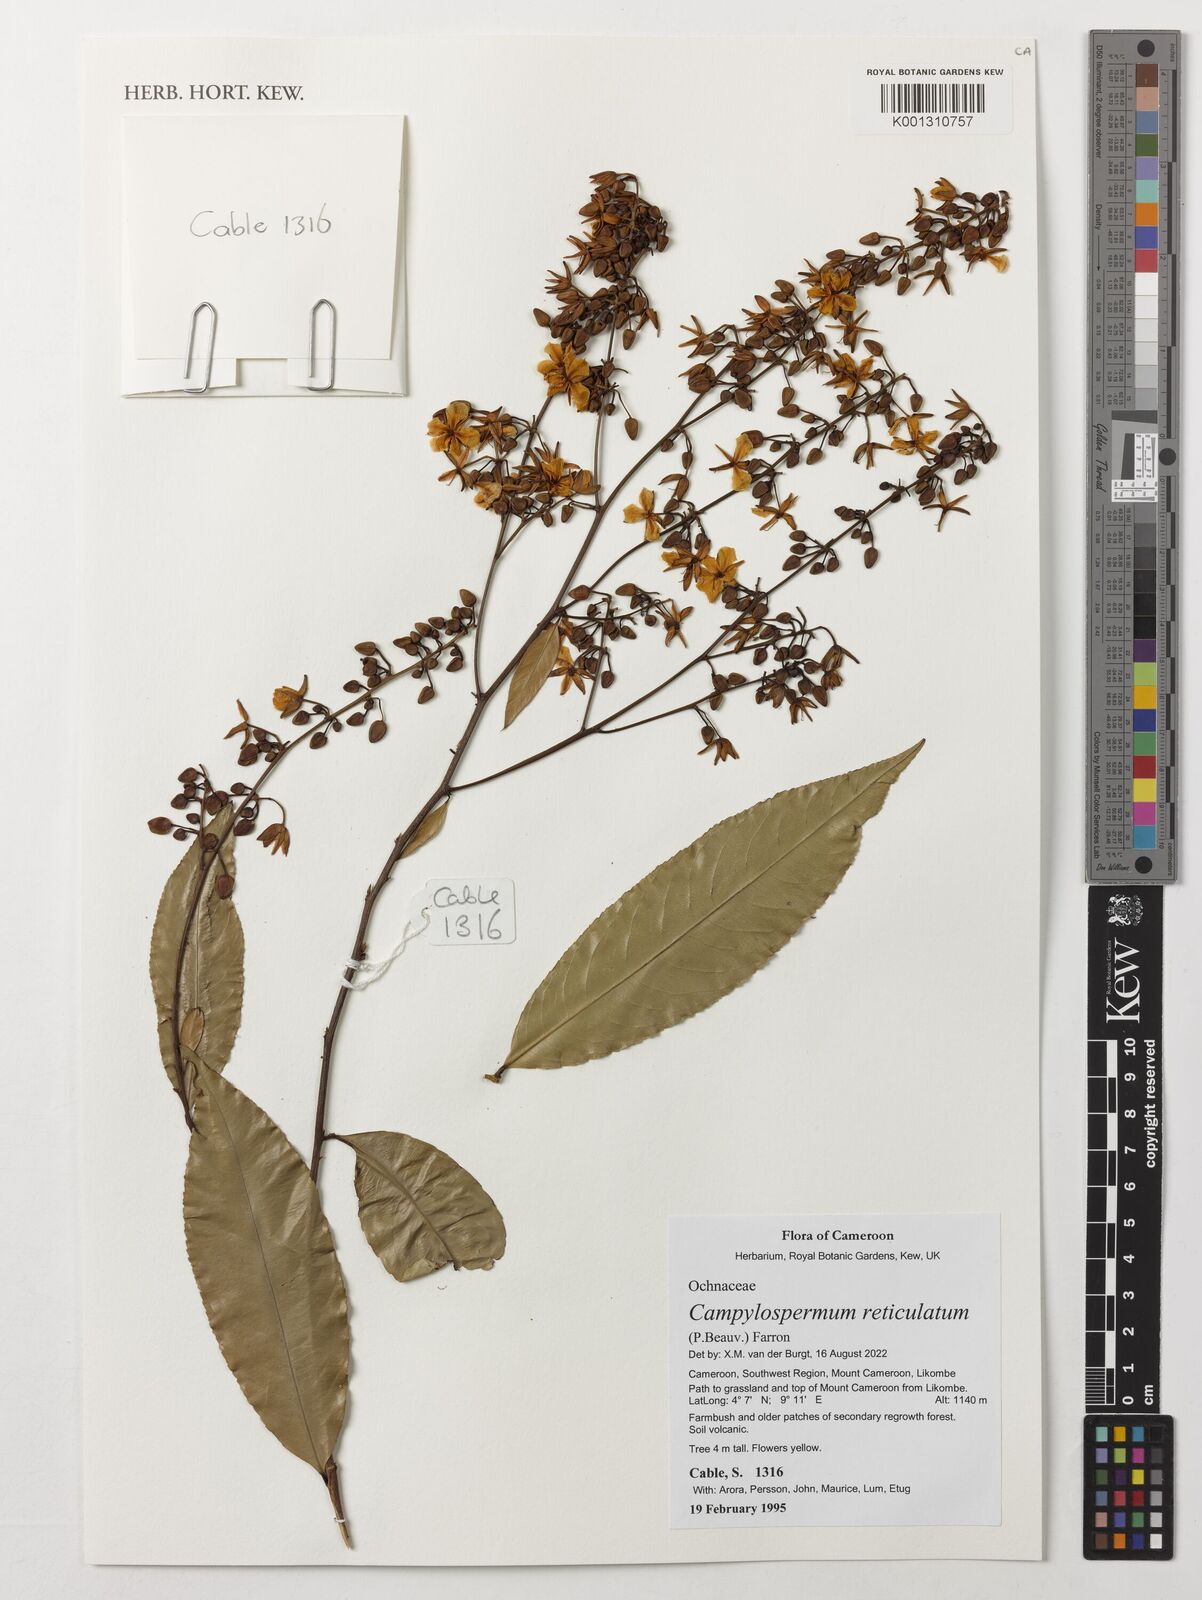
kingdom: Plantae
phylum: Tracheophyta
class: Magnoliopsida
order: Malpighiales
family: Ochnaceae
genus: Campylospermum
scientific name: Campylospermum reticulatum
